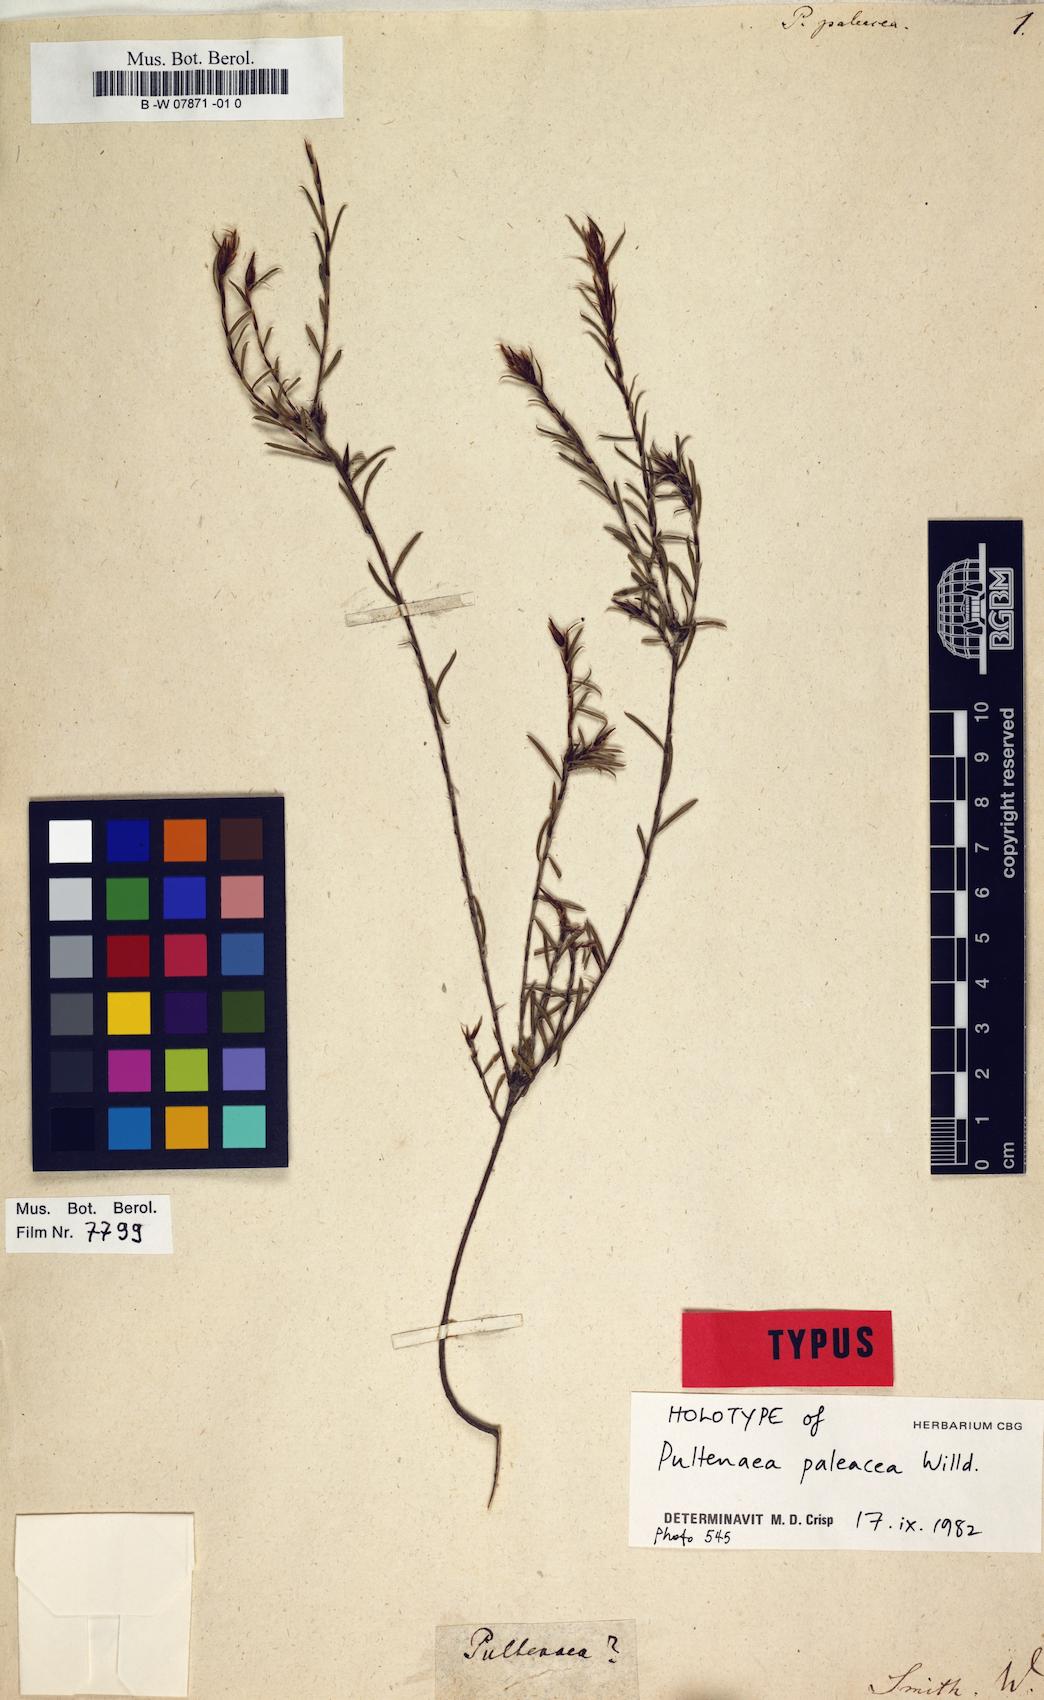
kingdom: Plantae
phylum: Tracheophyta
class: Magnoliopsida
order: Fabales
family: Fabaceae
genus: Pultenaea
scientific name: Pultenaea paleacea
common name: Chaffy bush-pea
